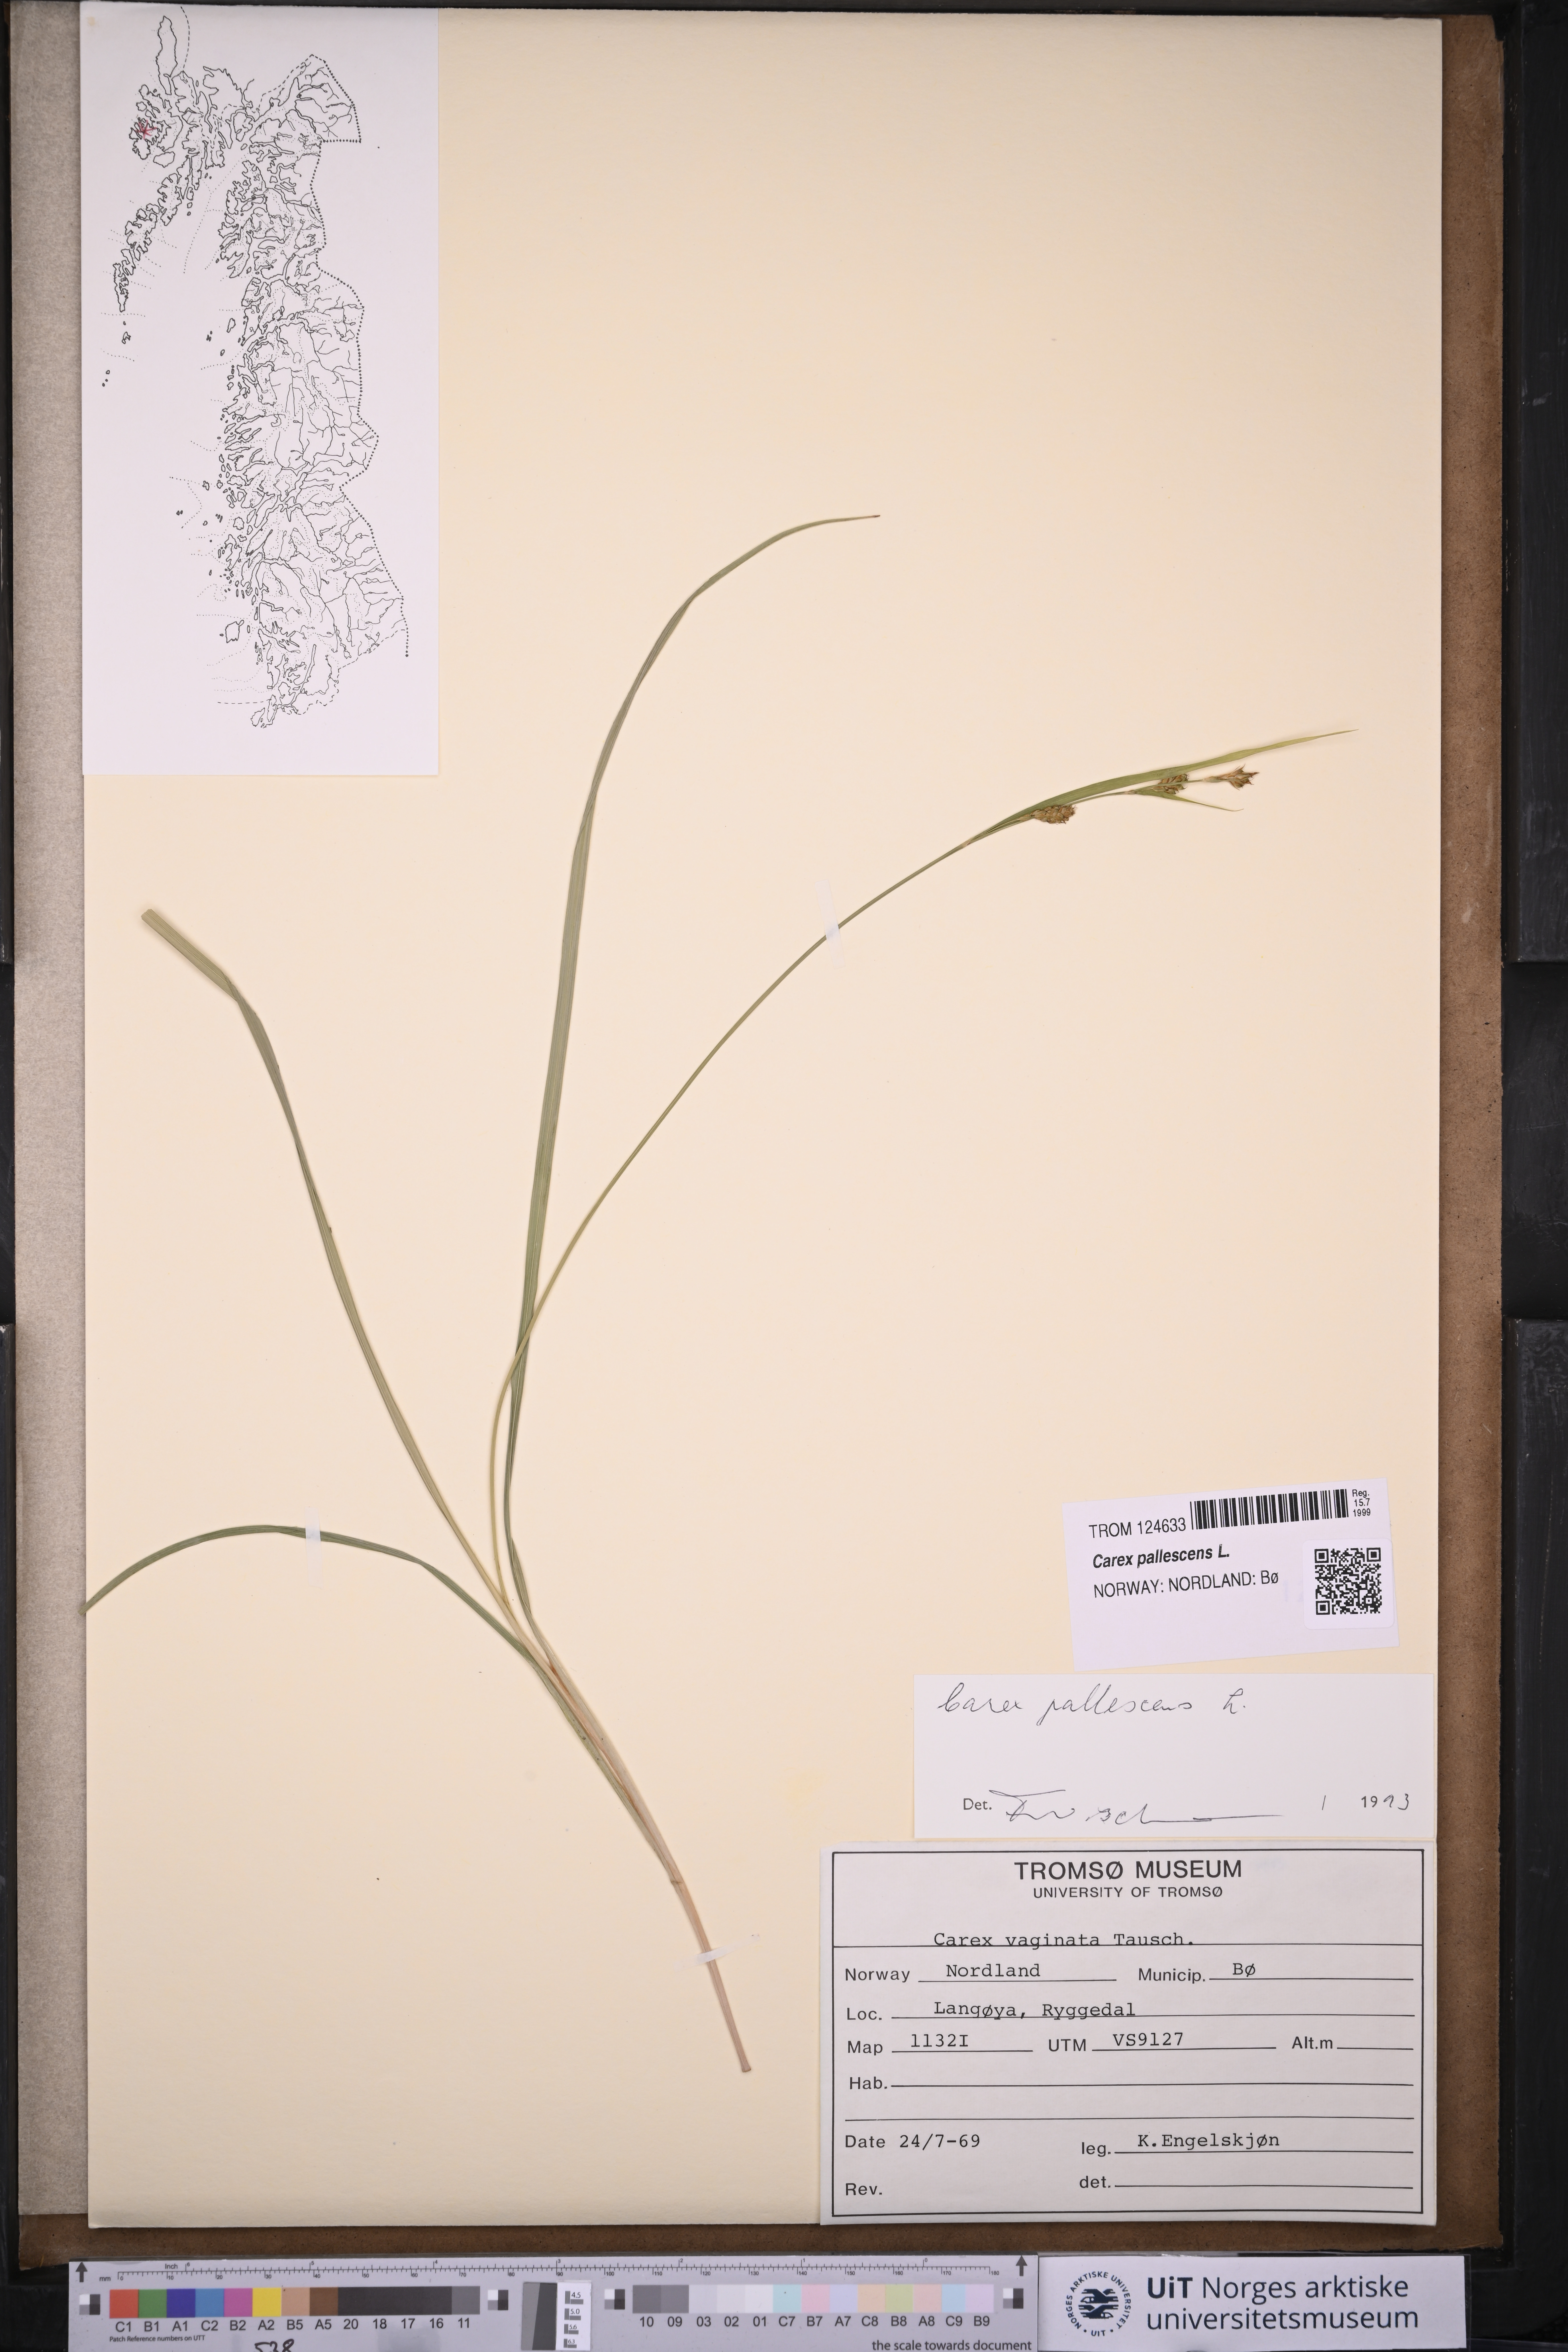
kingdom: Plantae
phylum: Tracheophyta
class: Liliopsida
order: Poales
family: Cyperaceae
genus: Carex
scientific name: Carex pallescens
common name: Pale sedge
